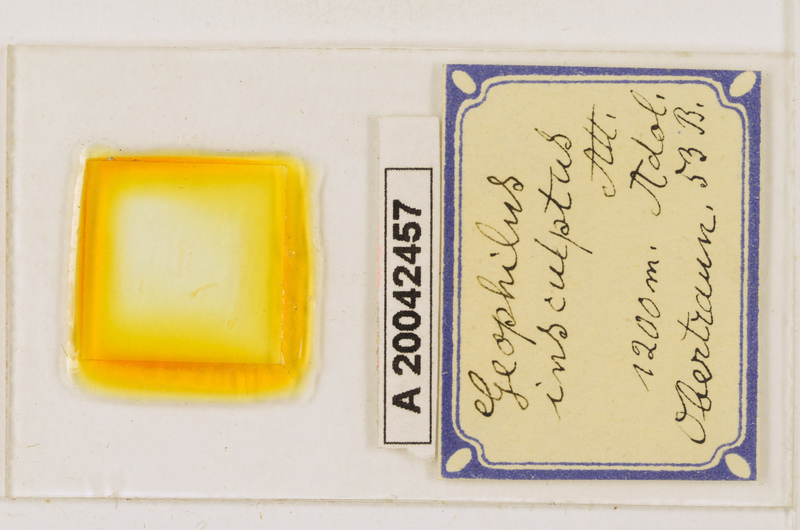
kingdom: Animalia
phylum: Arthropoda
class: Chilopoda
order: Geophilomorpha
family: Geophilidae
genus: Geophilus
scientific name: Geophilus insculptus
